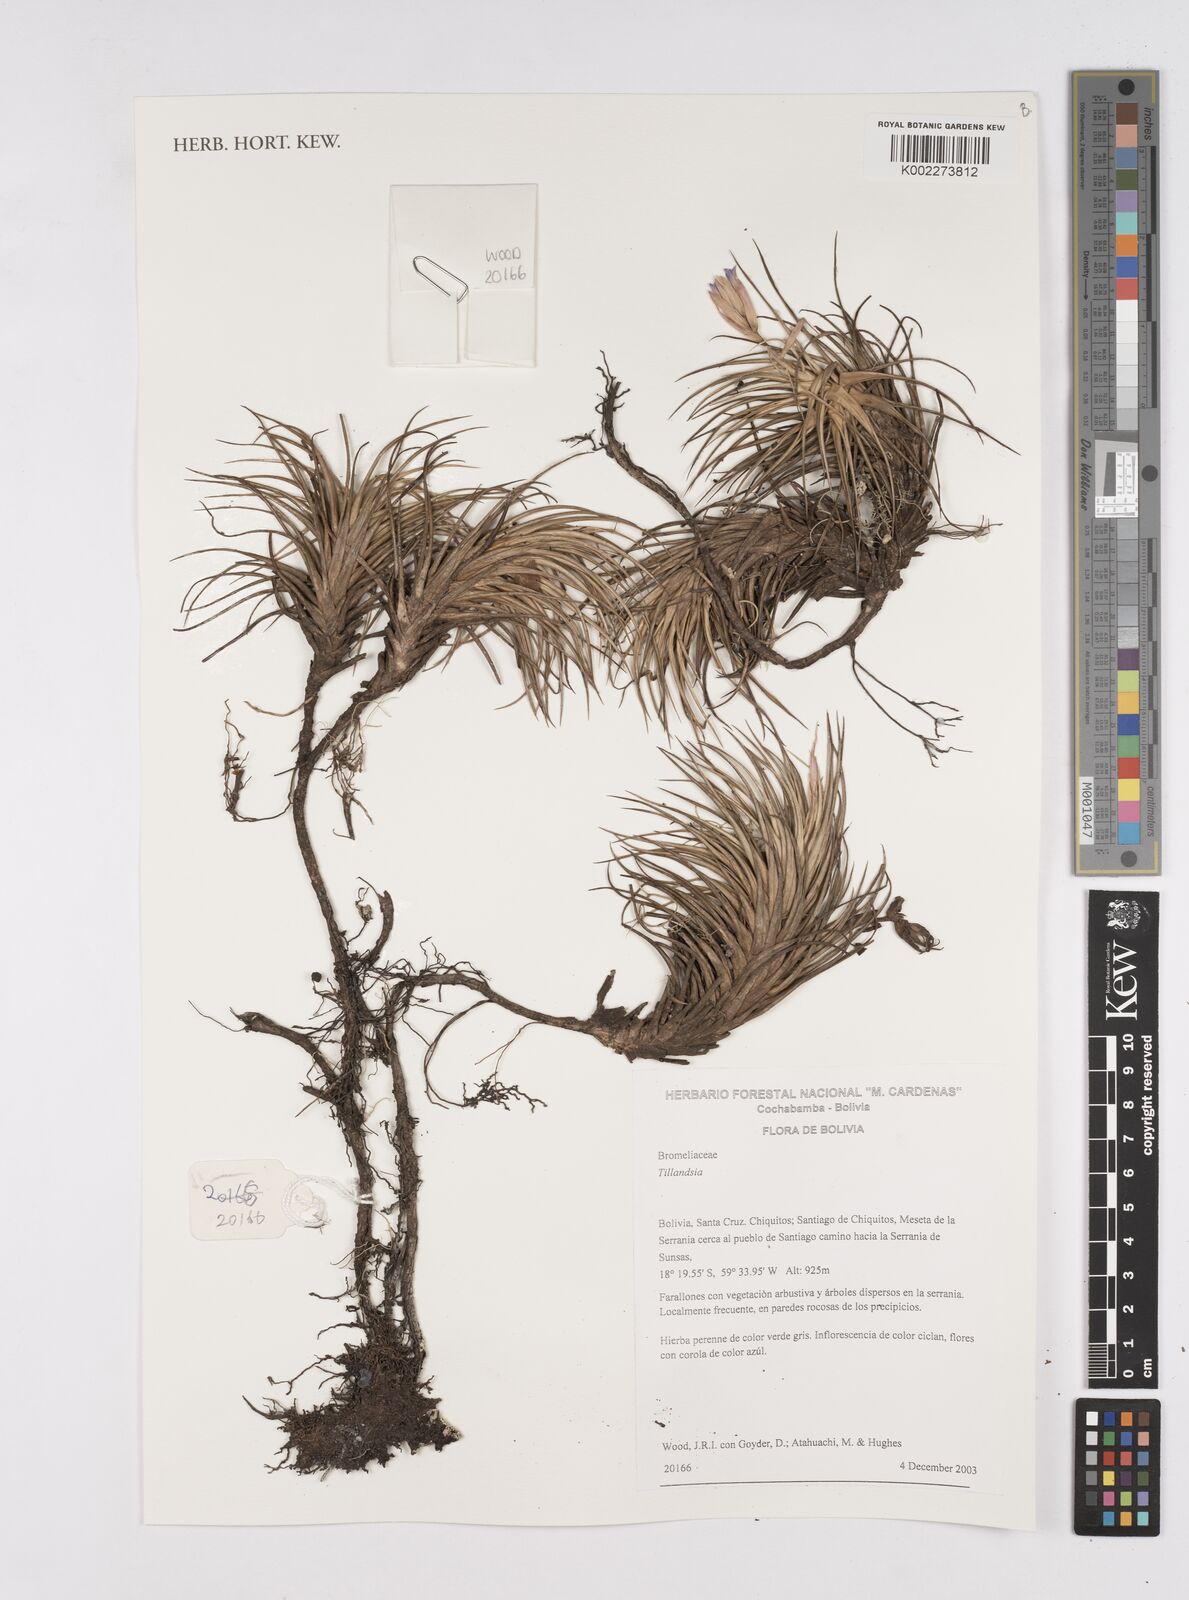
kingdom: Plantae
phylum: Tracheophyta
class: Liliopsida
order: Poales
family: Bromeliaceae
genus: Tillandsia
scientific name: Tillandsia
